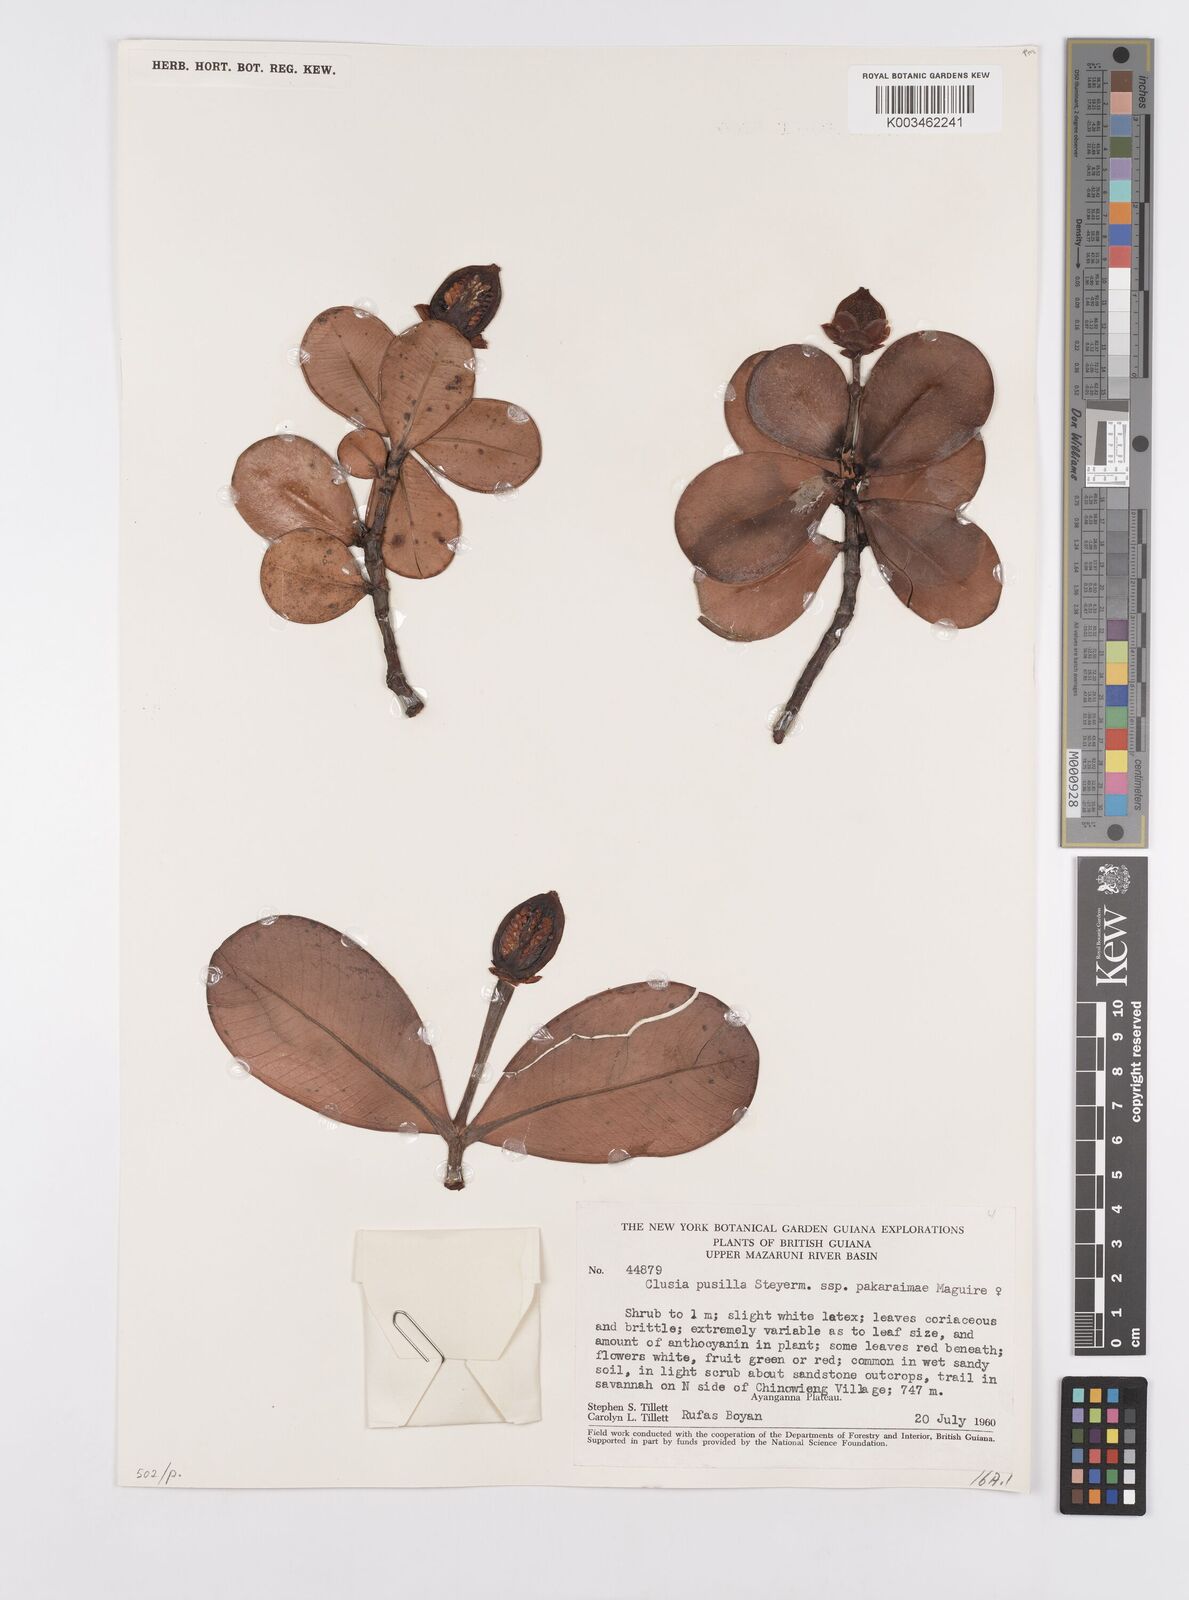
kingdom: Plantae
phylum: Tracheophyta
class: Magnoliopsida
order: Malpighiales
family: Clusiaceae
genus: Clusia
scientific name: Clusia pusilla
